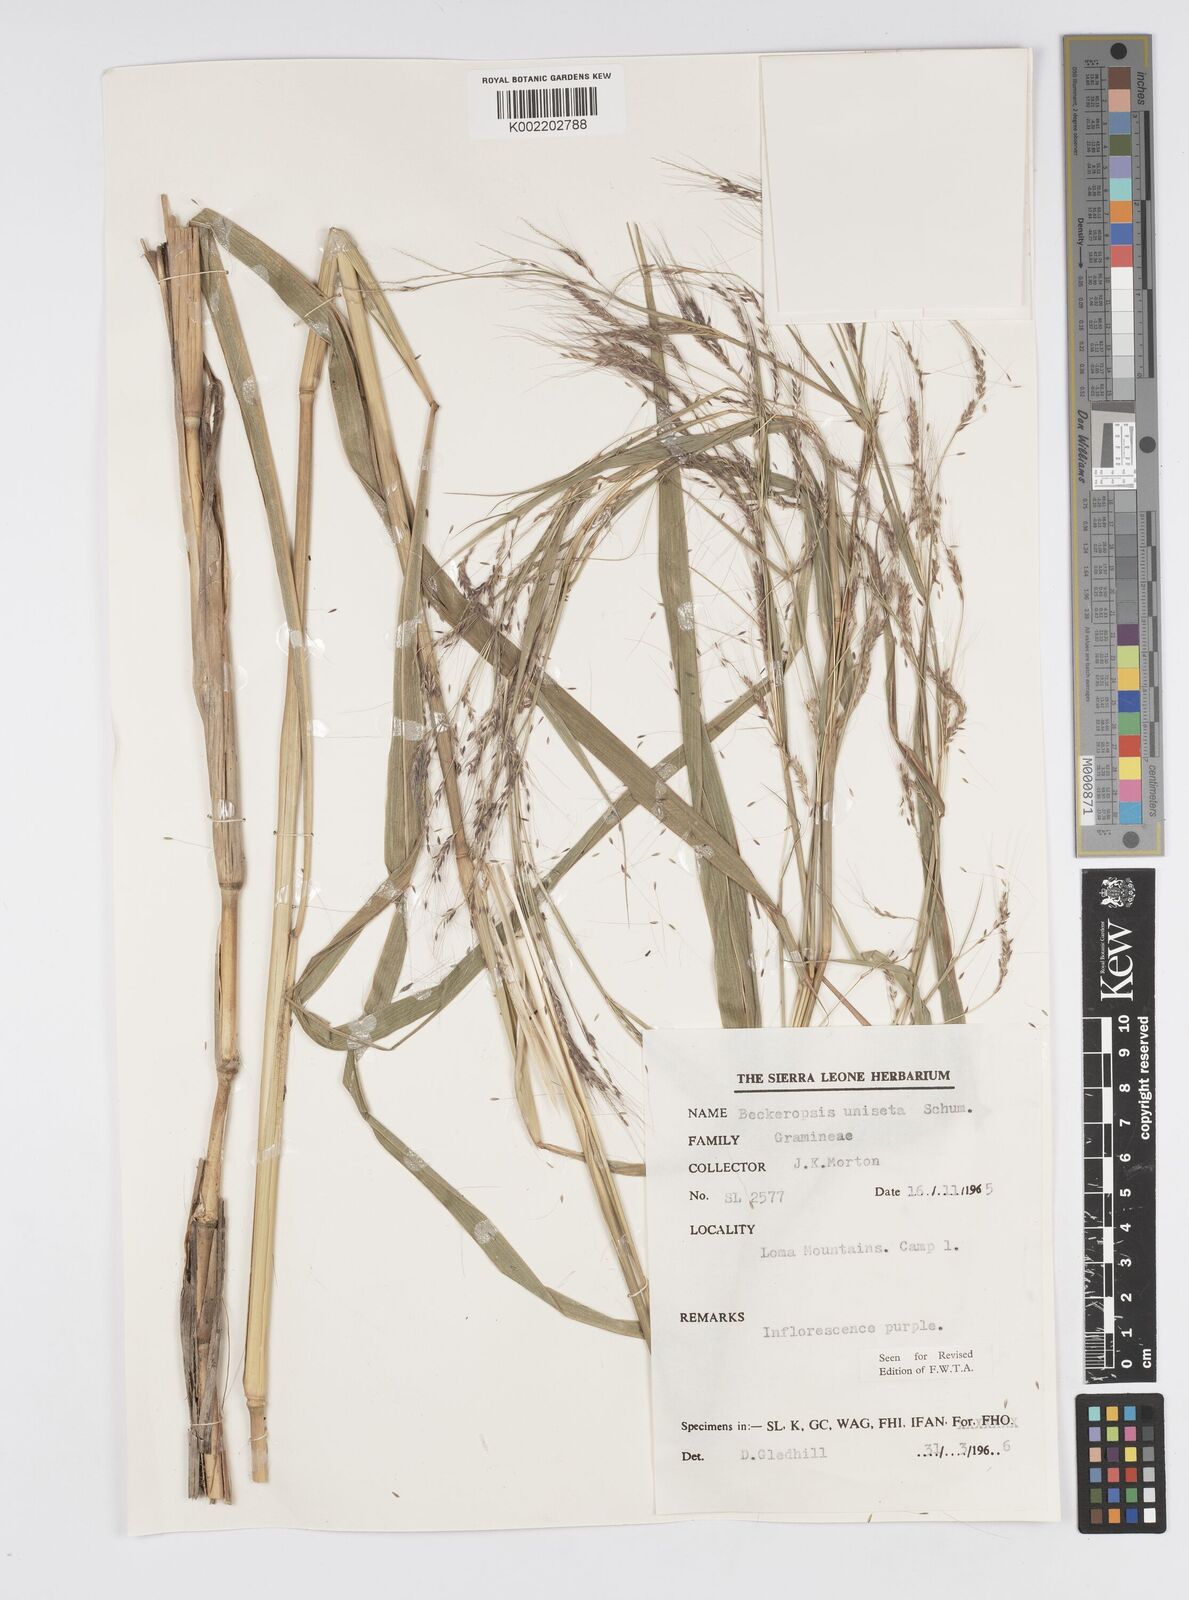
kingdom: Plantae
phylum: Tracheophyta
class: Liliopsida
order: Poales
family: Poaceae
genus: Cenchrus
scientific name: Cenchrus unisetus
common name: Natal grass
